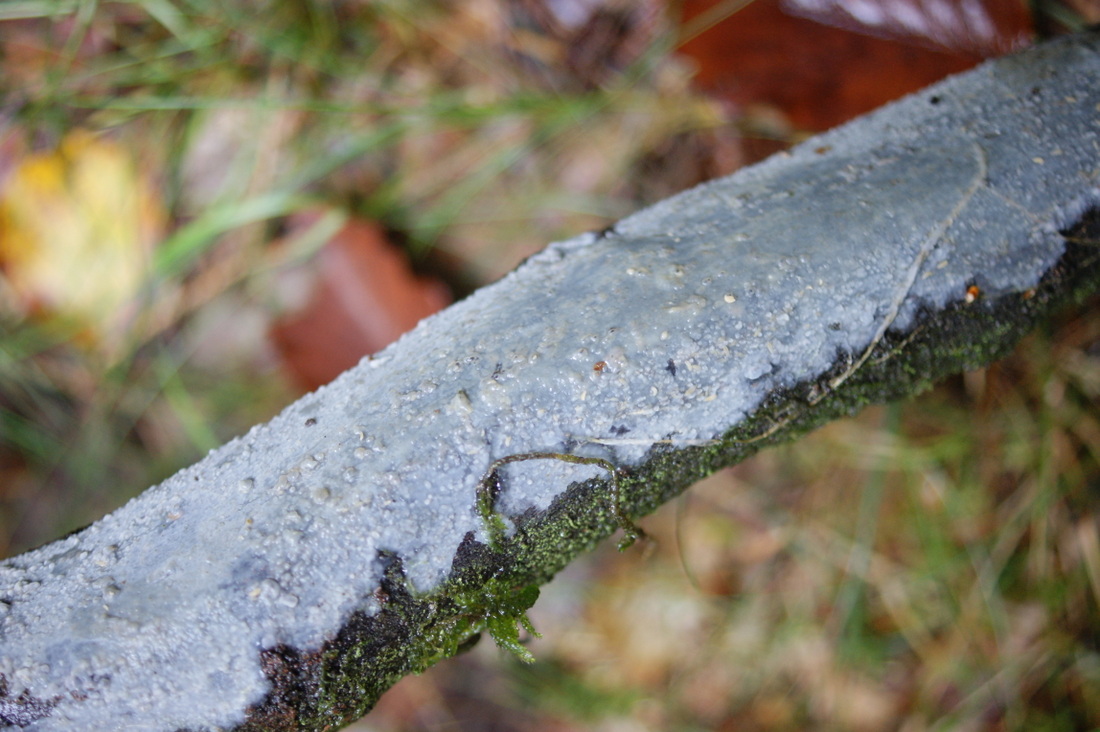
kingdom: Fungi
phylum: Basidiomycota
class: Agaricomycetes
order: Agaricales
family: Radulomycetaceae
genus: Radulomyces
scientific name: Radulomyces confluens
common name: glat naftalinskind
